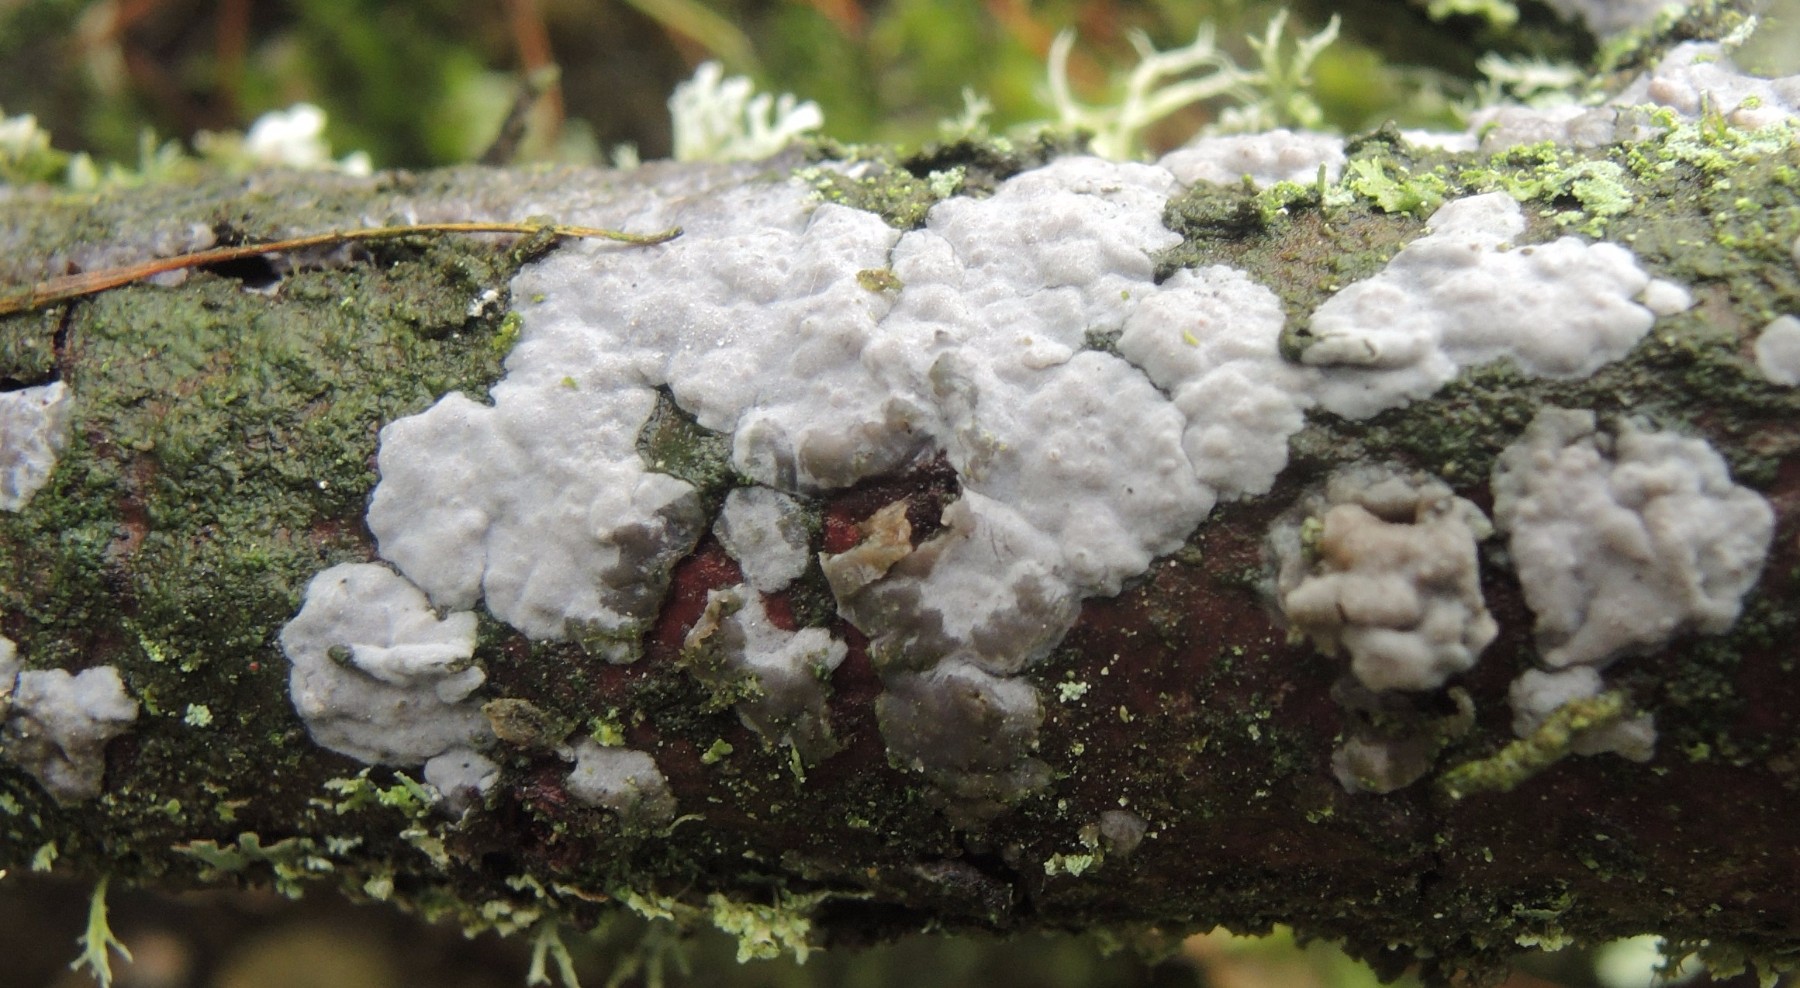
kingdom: Fungi
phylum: Basidiomycota
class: Agaricomycetes
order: Sebacinales
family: Sebacinaceae
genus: Sebacina
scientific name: Sebacina grisea
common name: blågrå bævrehinde
